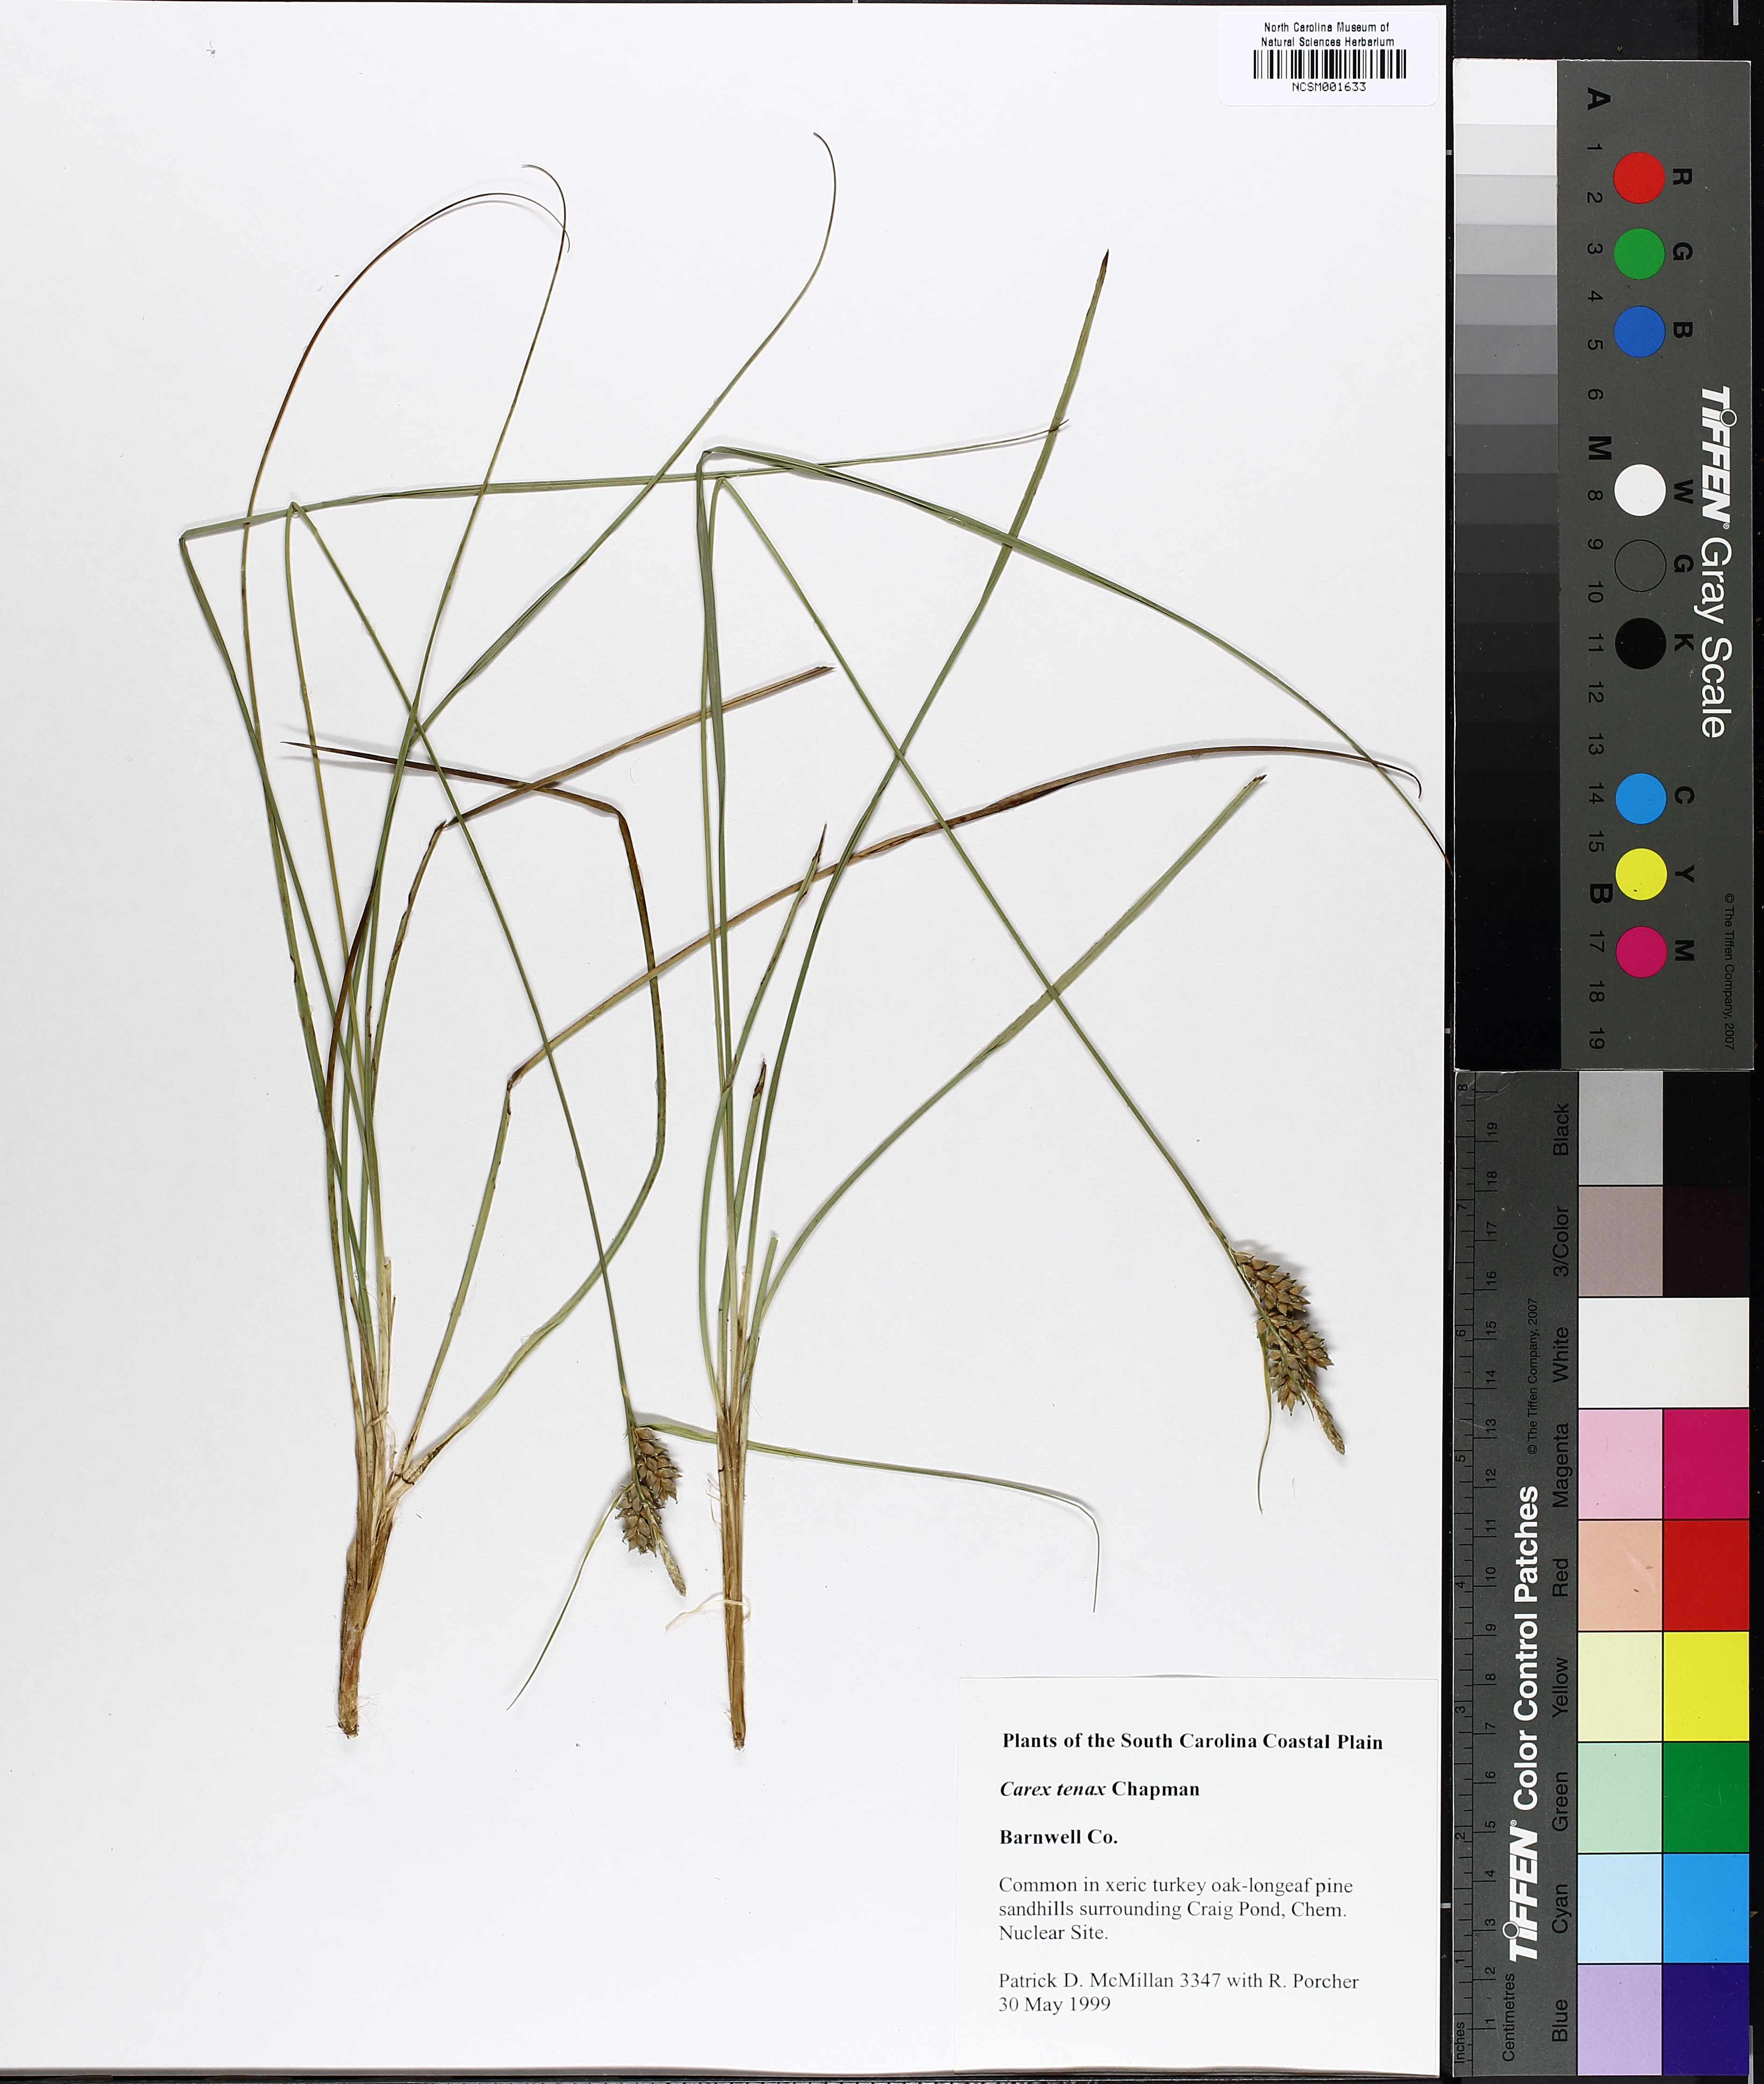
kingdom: Plantae
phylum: Tracheophyta
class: Liliopsida
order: Poales
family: Cyperaceae
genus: Carex
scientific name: Carex tenax
